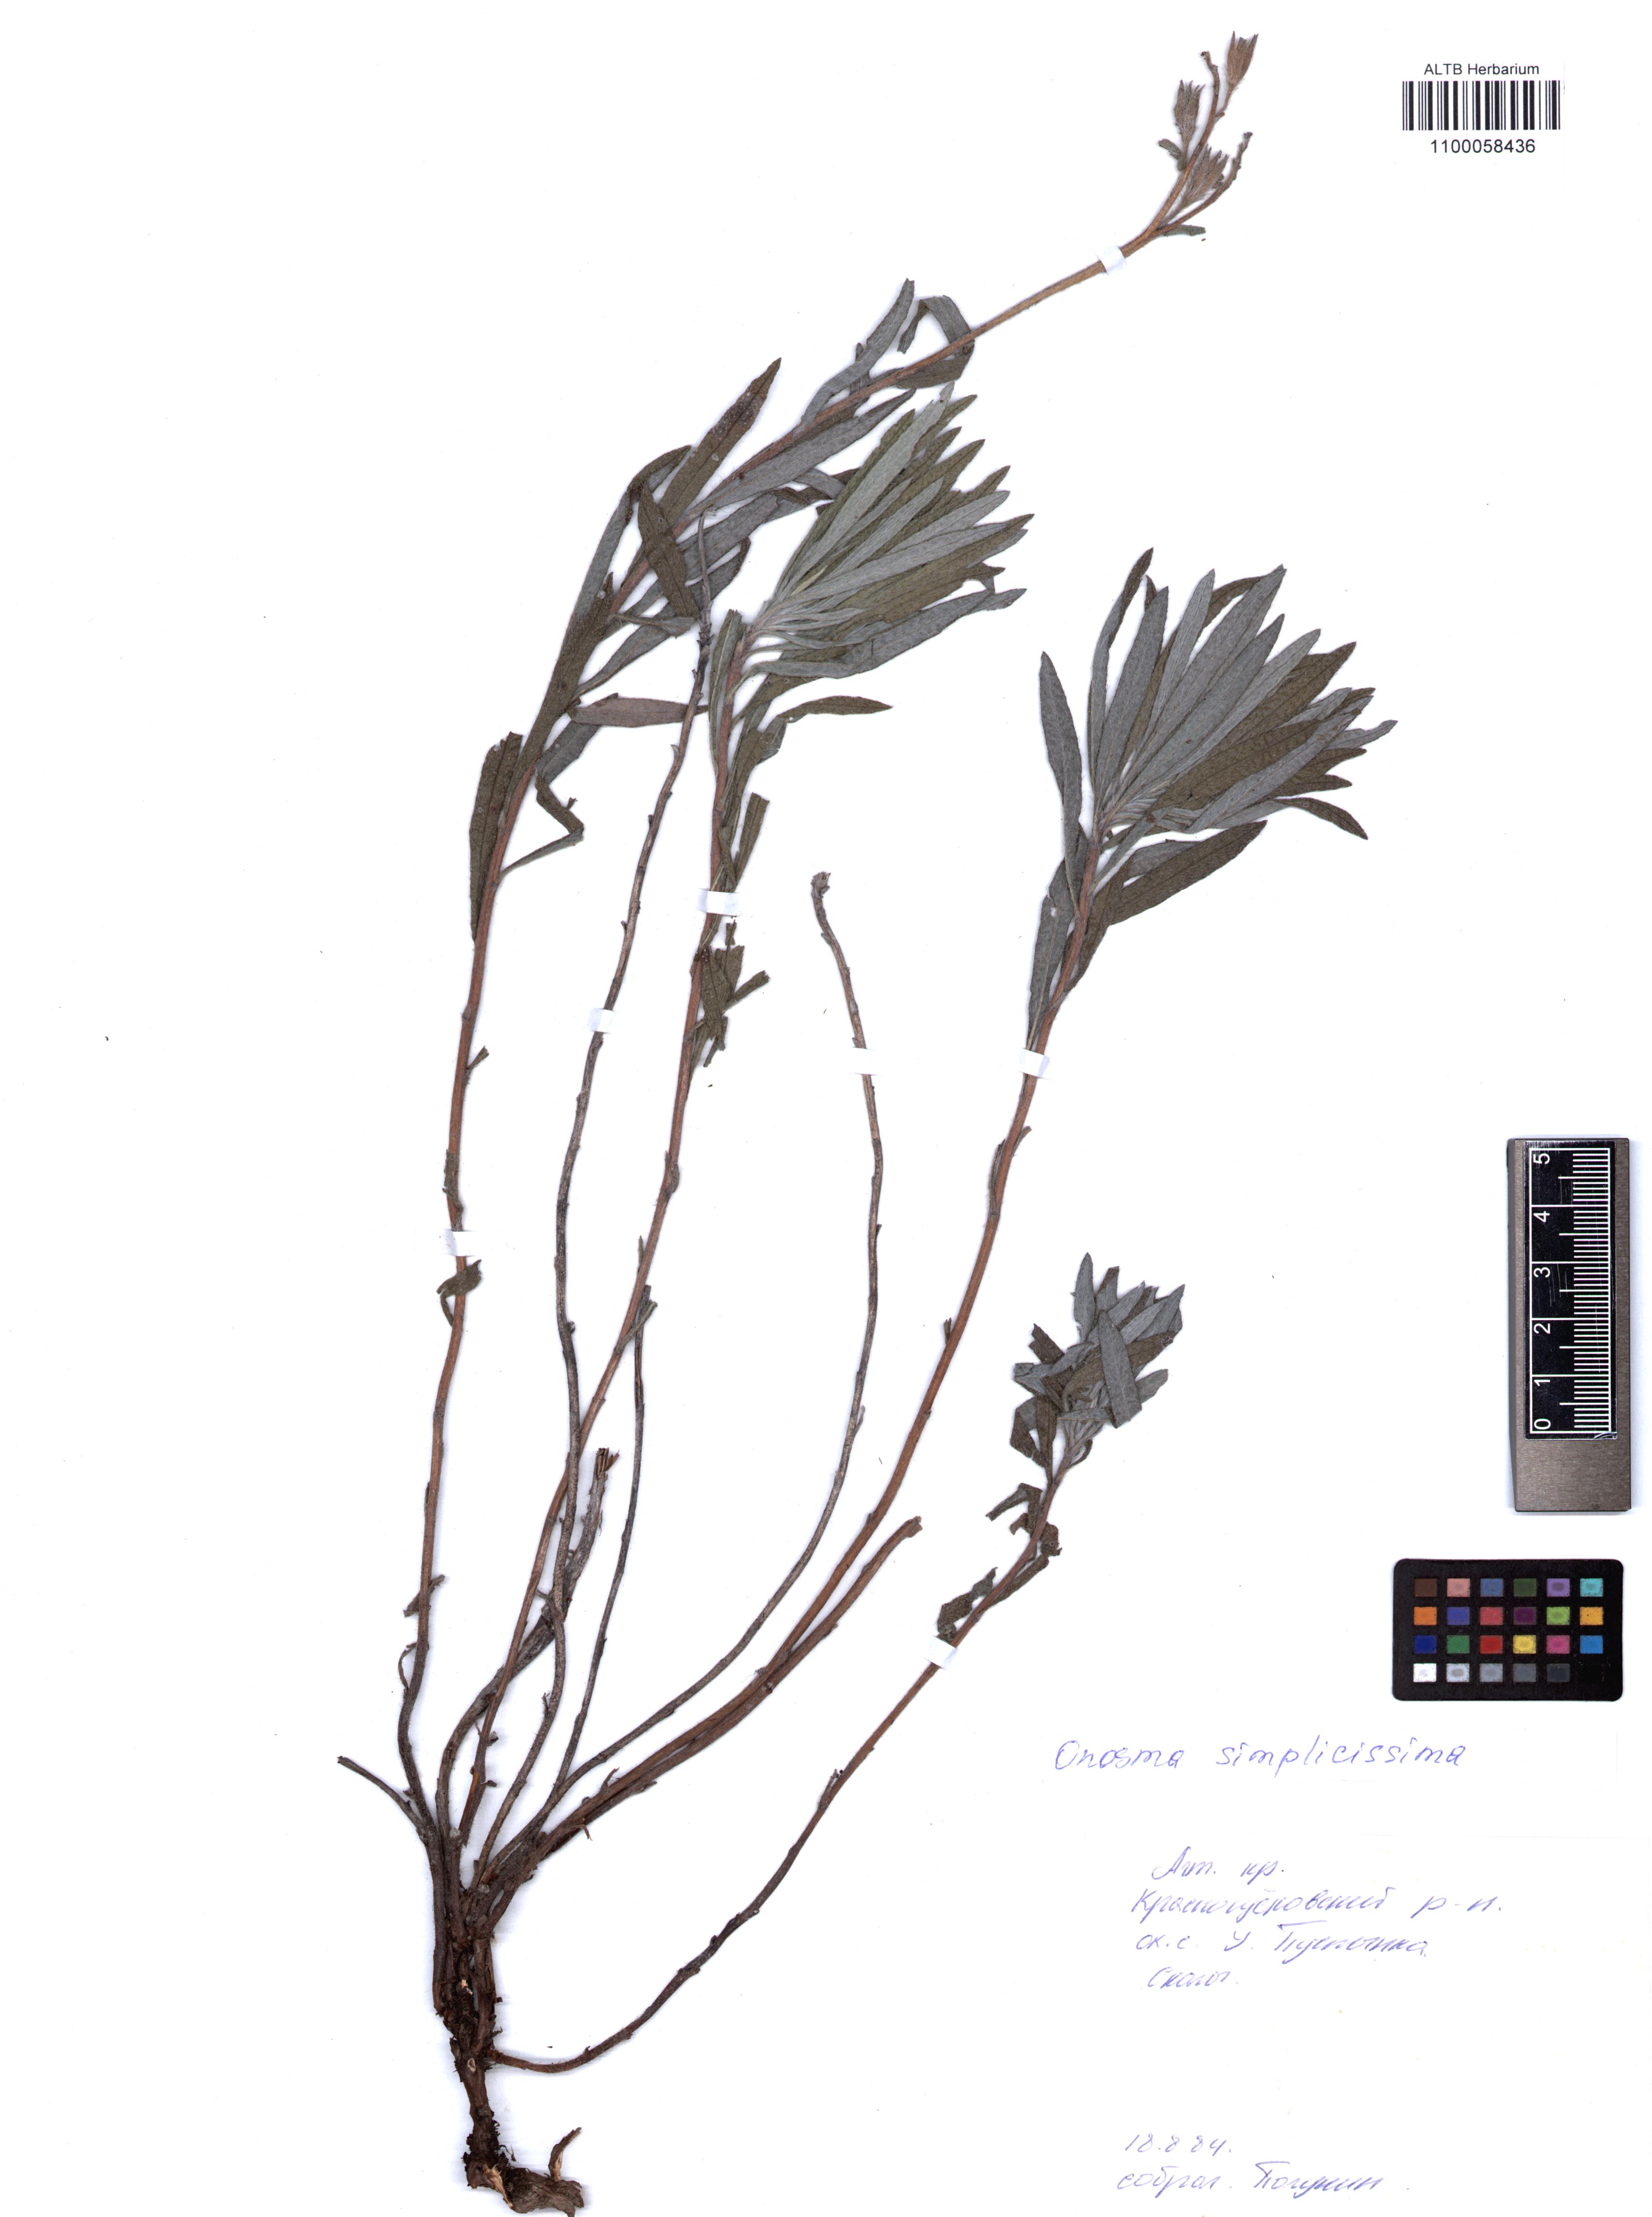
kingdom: Plantae
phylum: Tracheophyta
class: Magnoliopsida
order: Boraginales
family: Boraginaceae
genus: Onosma
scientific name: Onosma simplicissima
